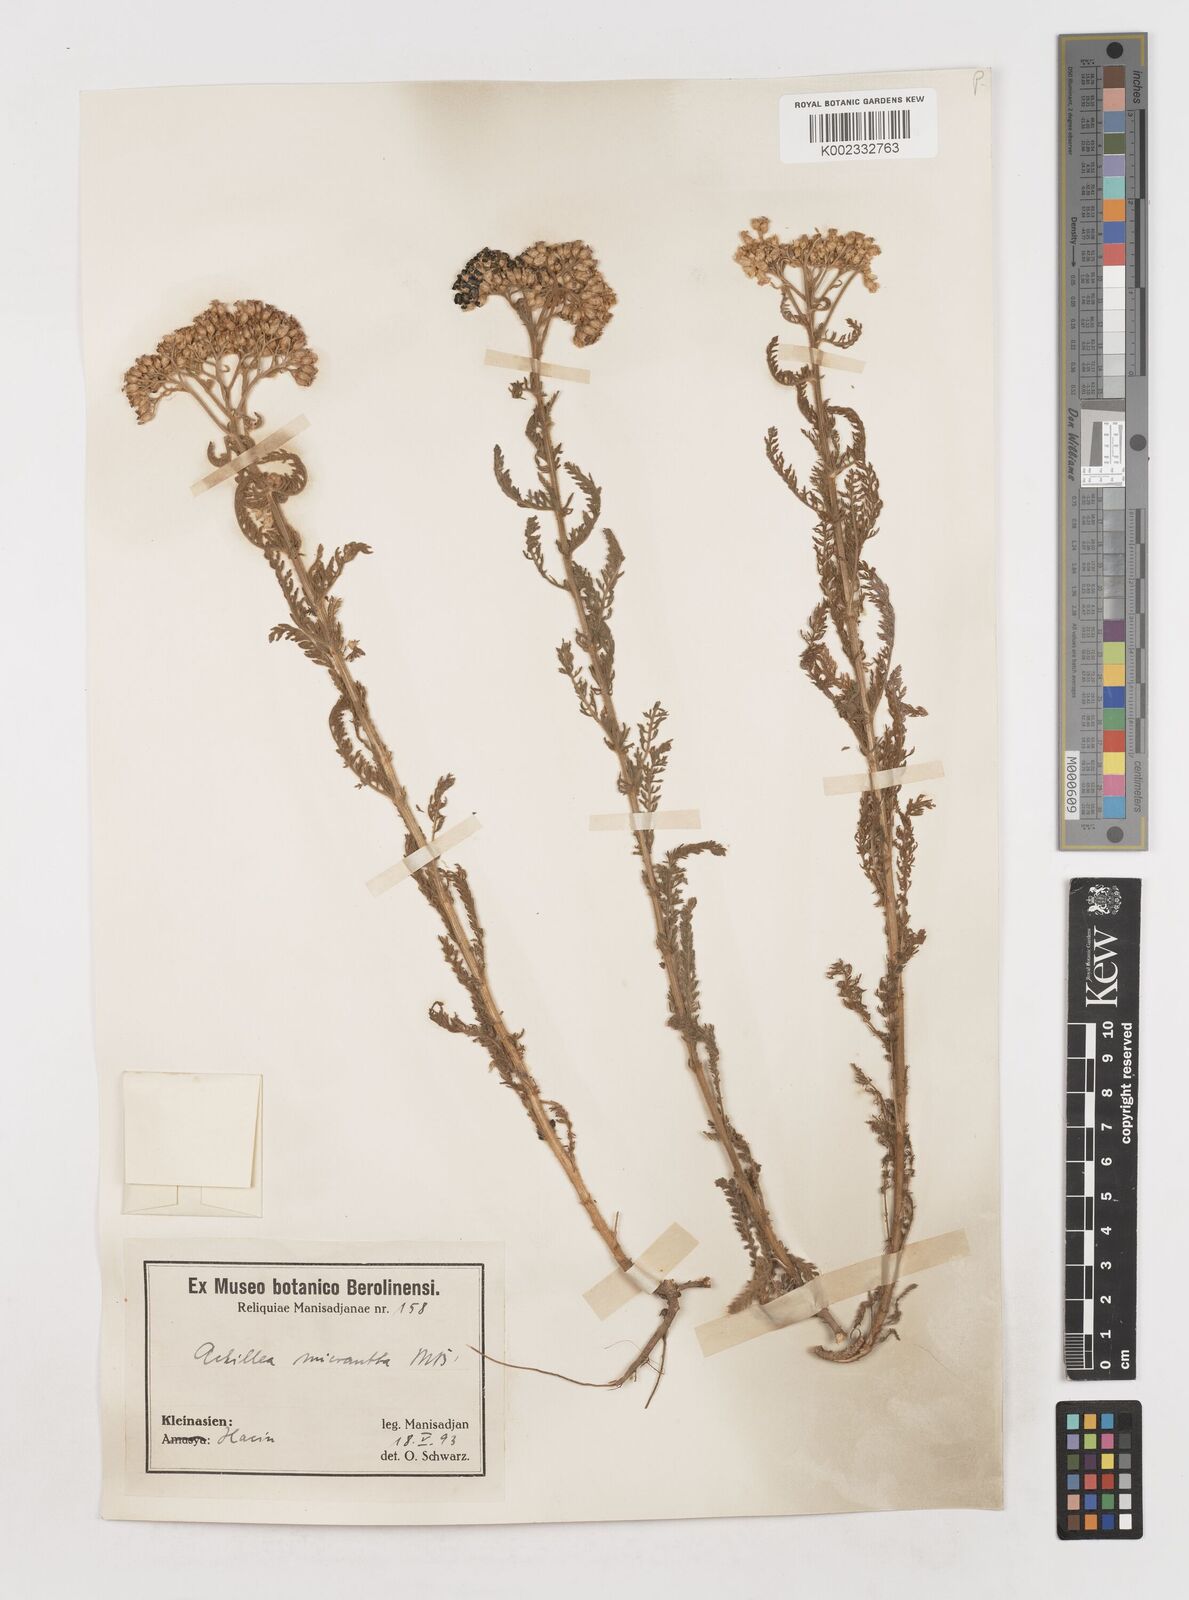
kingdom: Plantae
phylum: Tracheophyta
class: Magnoliopsida
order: Asterales
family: Asteraceae
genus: Achillea
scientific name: Achillea micrantha
